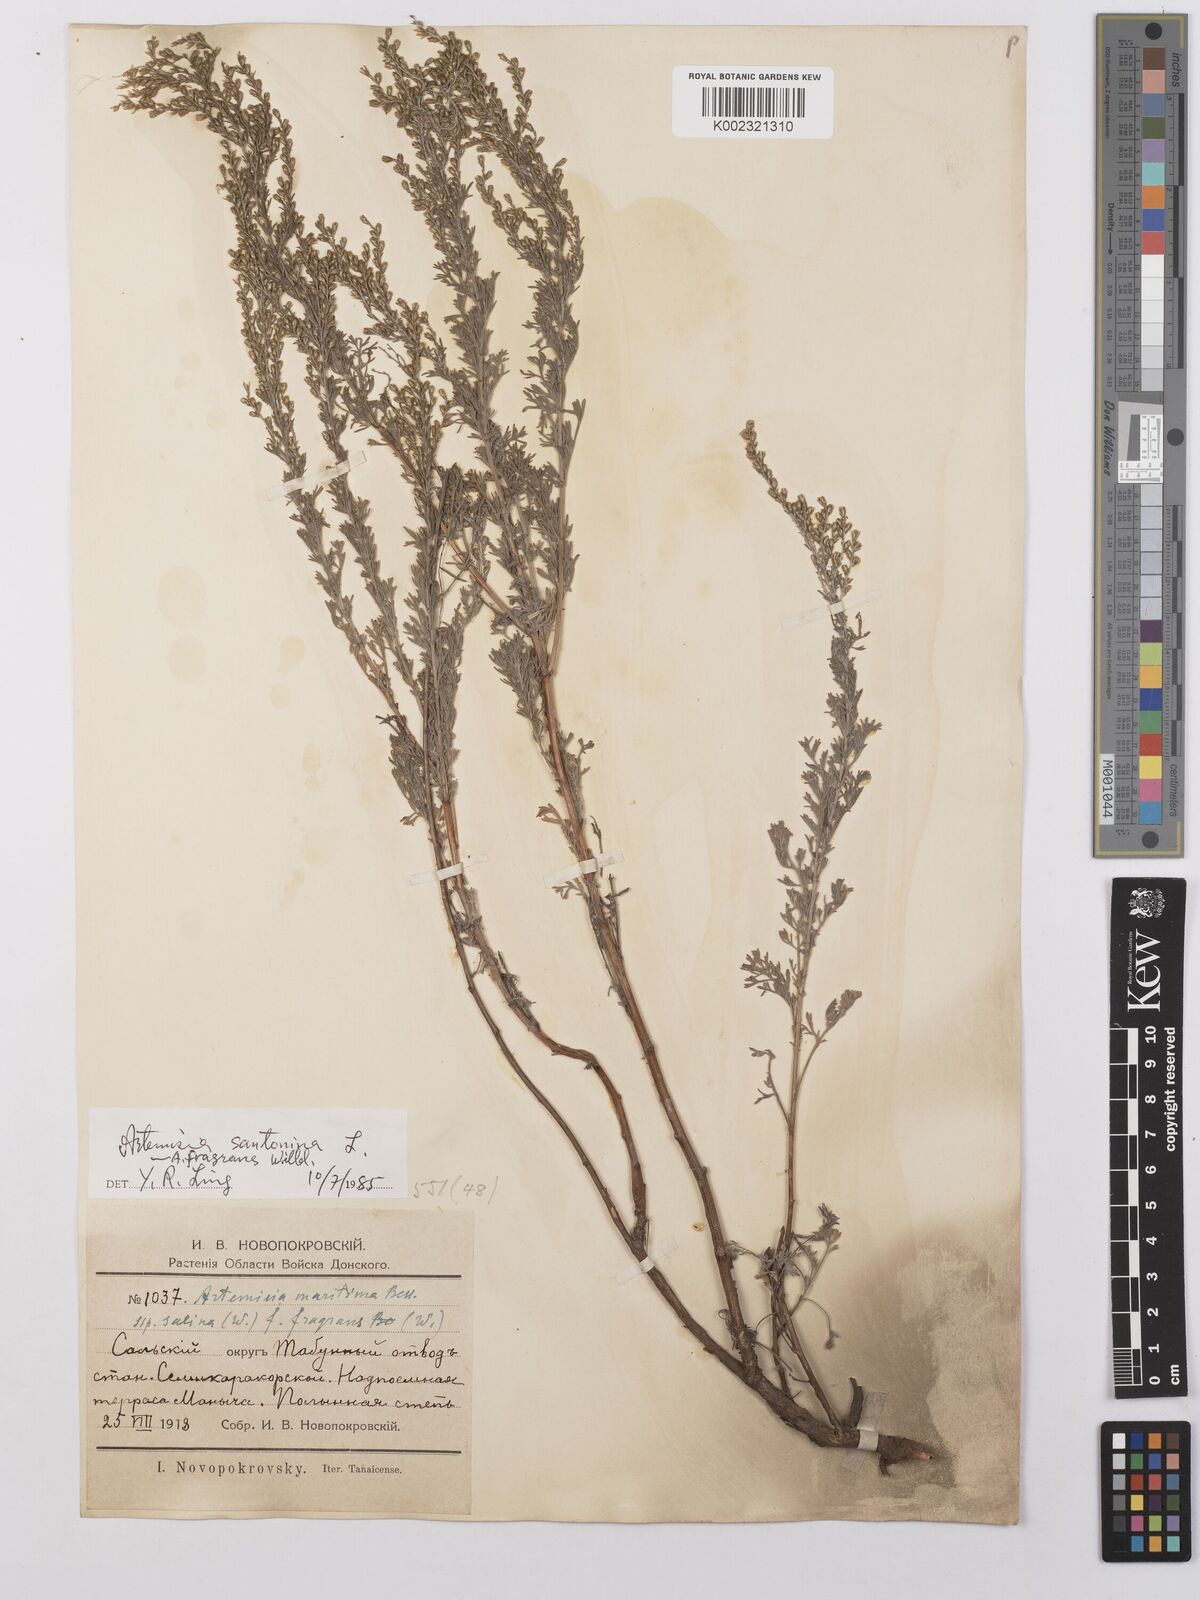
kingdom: Plantae
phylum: Tracheophyta
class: Magnoliopsida
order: Asterales
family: Asteraceae
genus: Artemisia
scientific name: Artemisia fragrans
